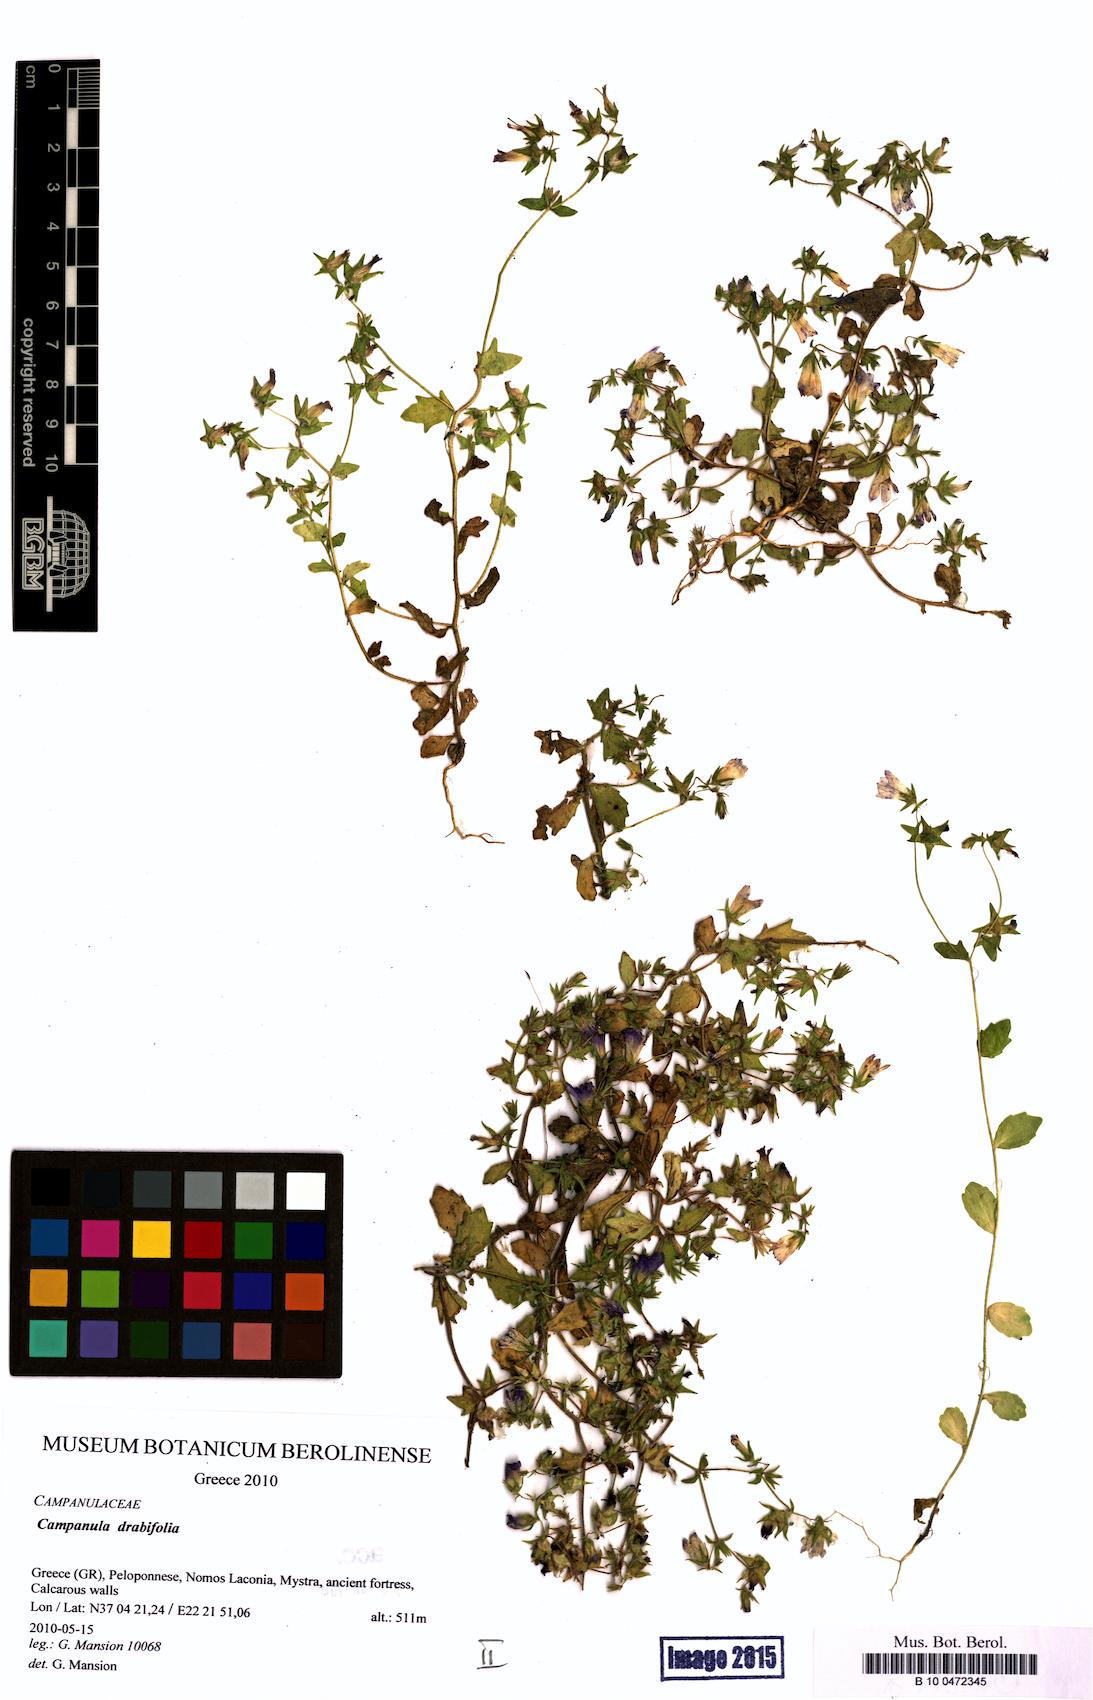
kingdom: Plantae
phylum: Tracheophyta
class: Magnoliopsida
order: Asterales
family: Campanulaceae
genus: Campanula
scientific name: Campanula drabifolia
